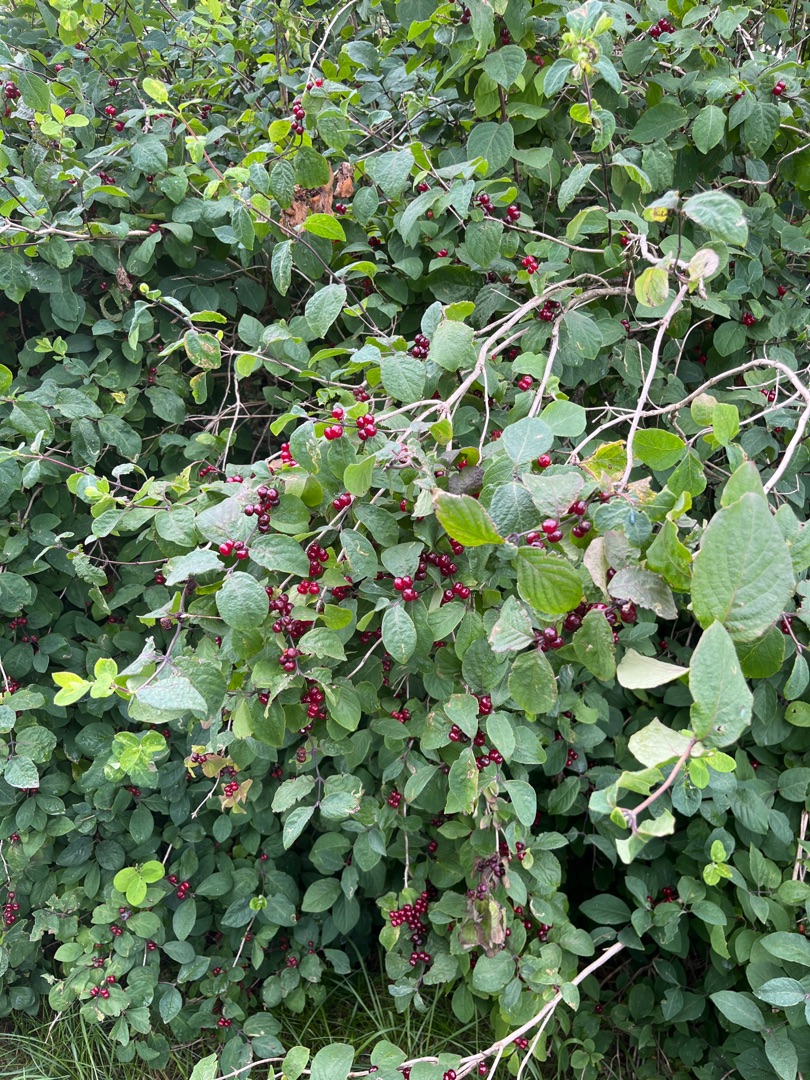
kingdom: Plantae
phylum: Tracheophyta
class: Magnoliopsida
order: Dipsacales
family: Caprifoliaceae
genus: Lonicera
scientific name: Lonicera xylosteum
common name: Dunet gedeblad
